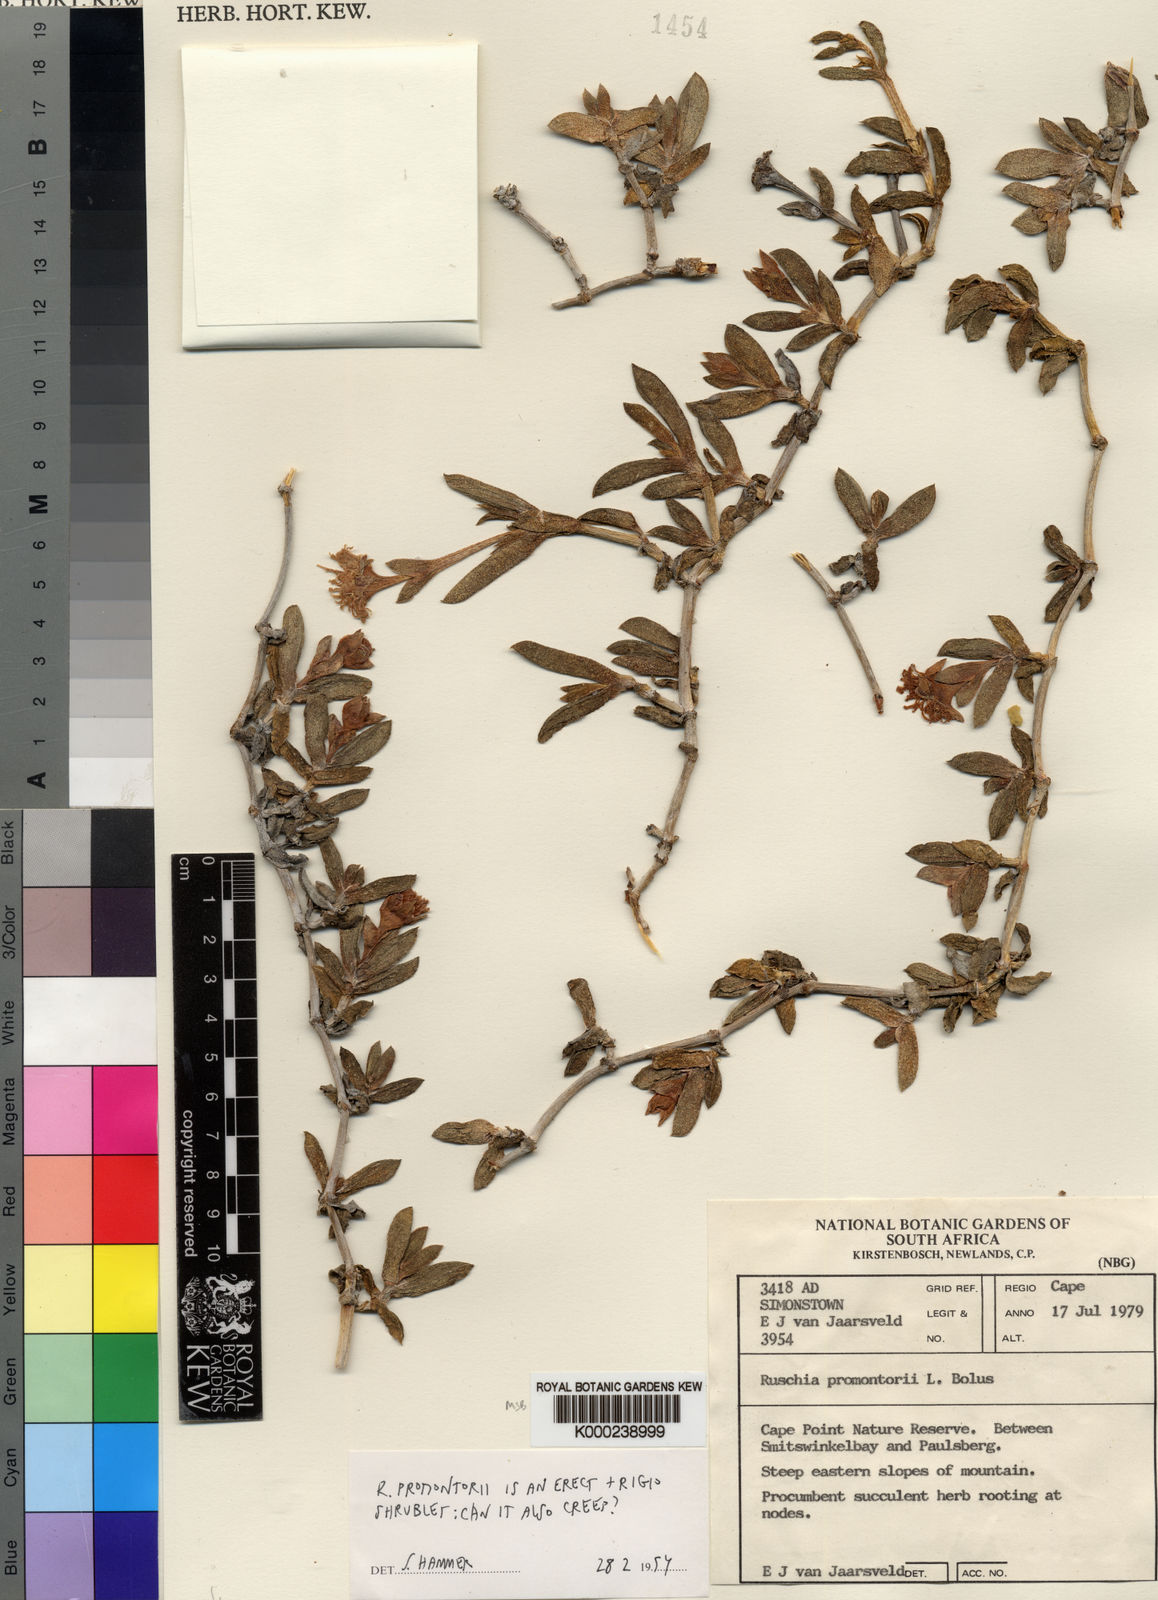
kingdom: Plantae
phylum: Tracheophyta
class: Magnoliopsida
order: Caryophyllales
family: Aizoaceae
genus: Amphibolia
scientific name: Amphibolia laevis
